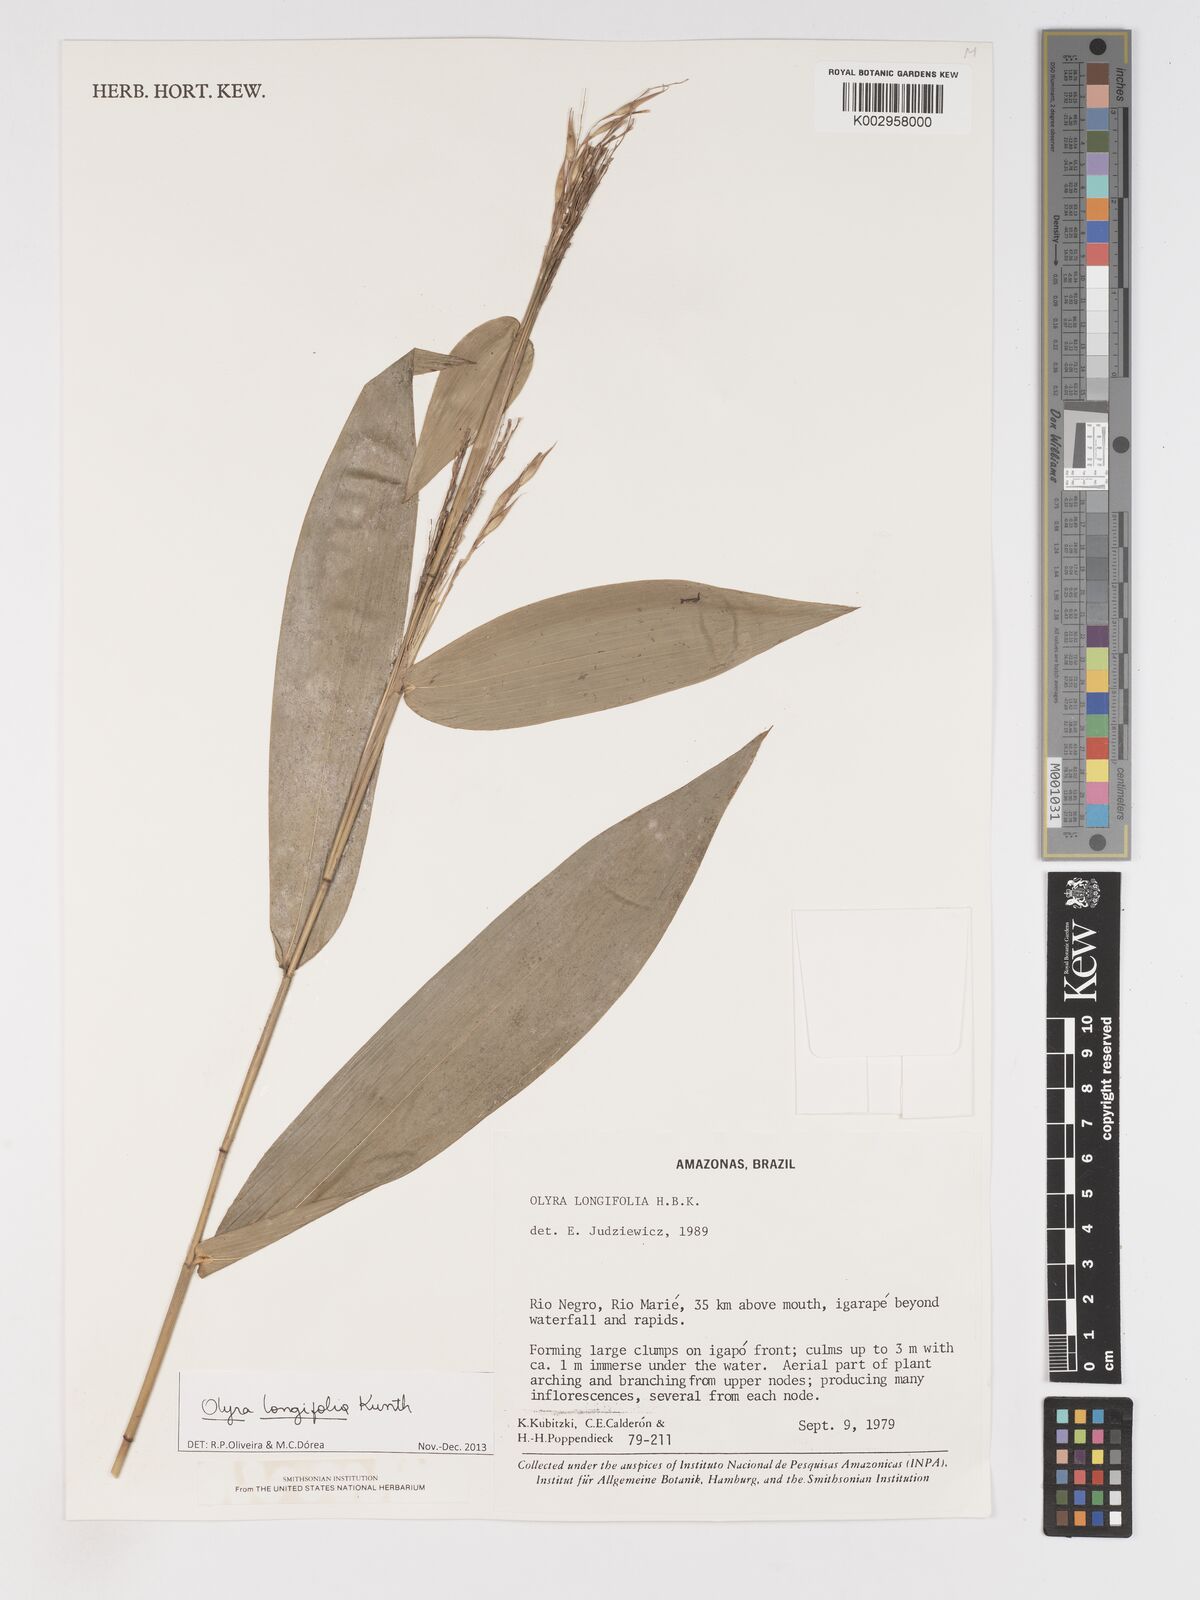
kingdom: Plantae
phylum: Tracheophyta
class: Liliopsida
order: Poales
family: Poaceae
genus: Olyra
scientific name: Olyra longifolia
